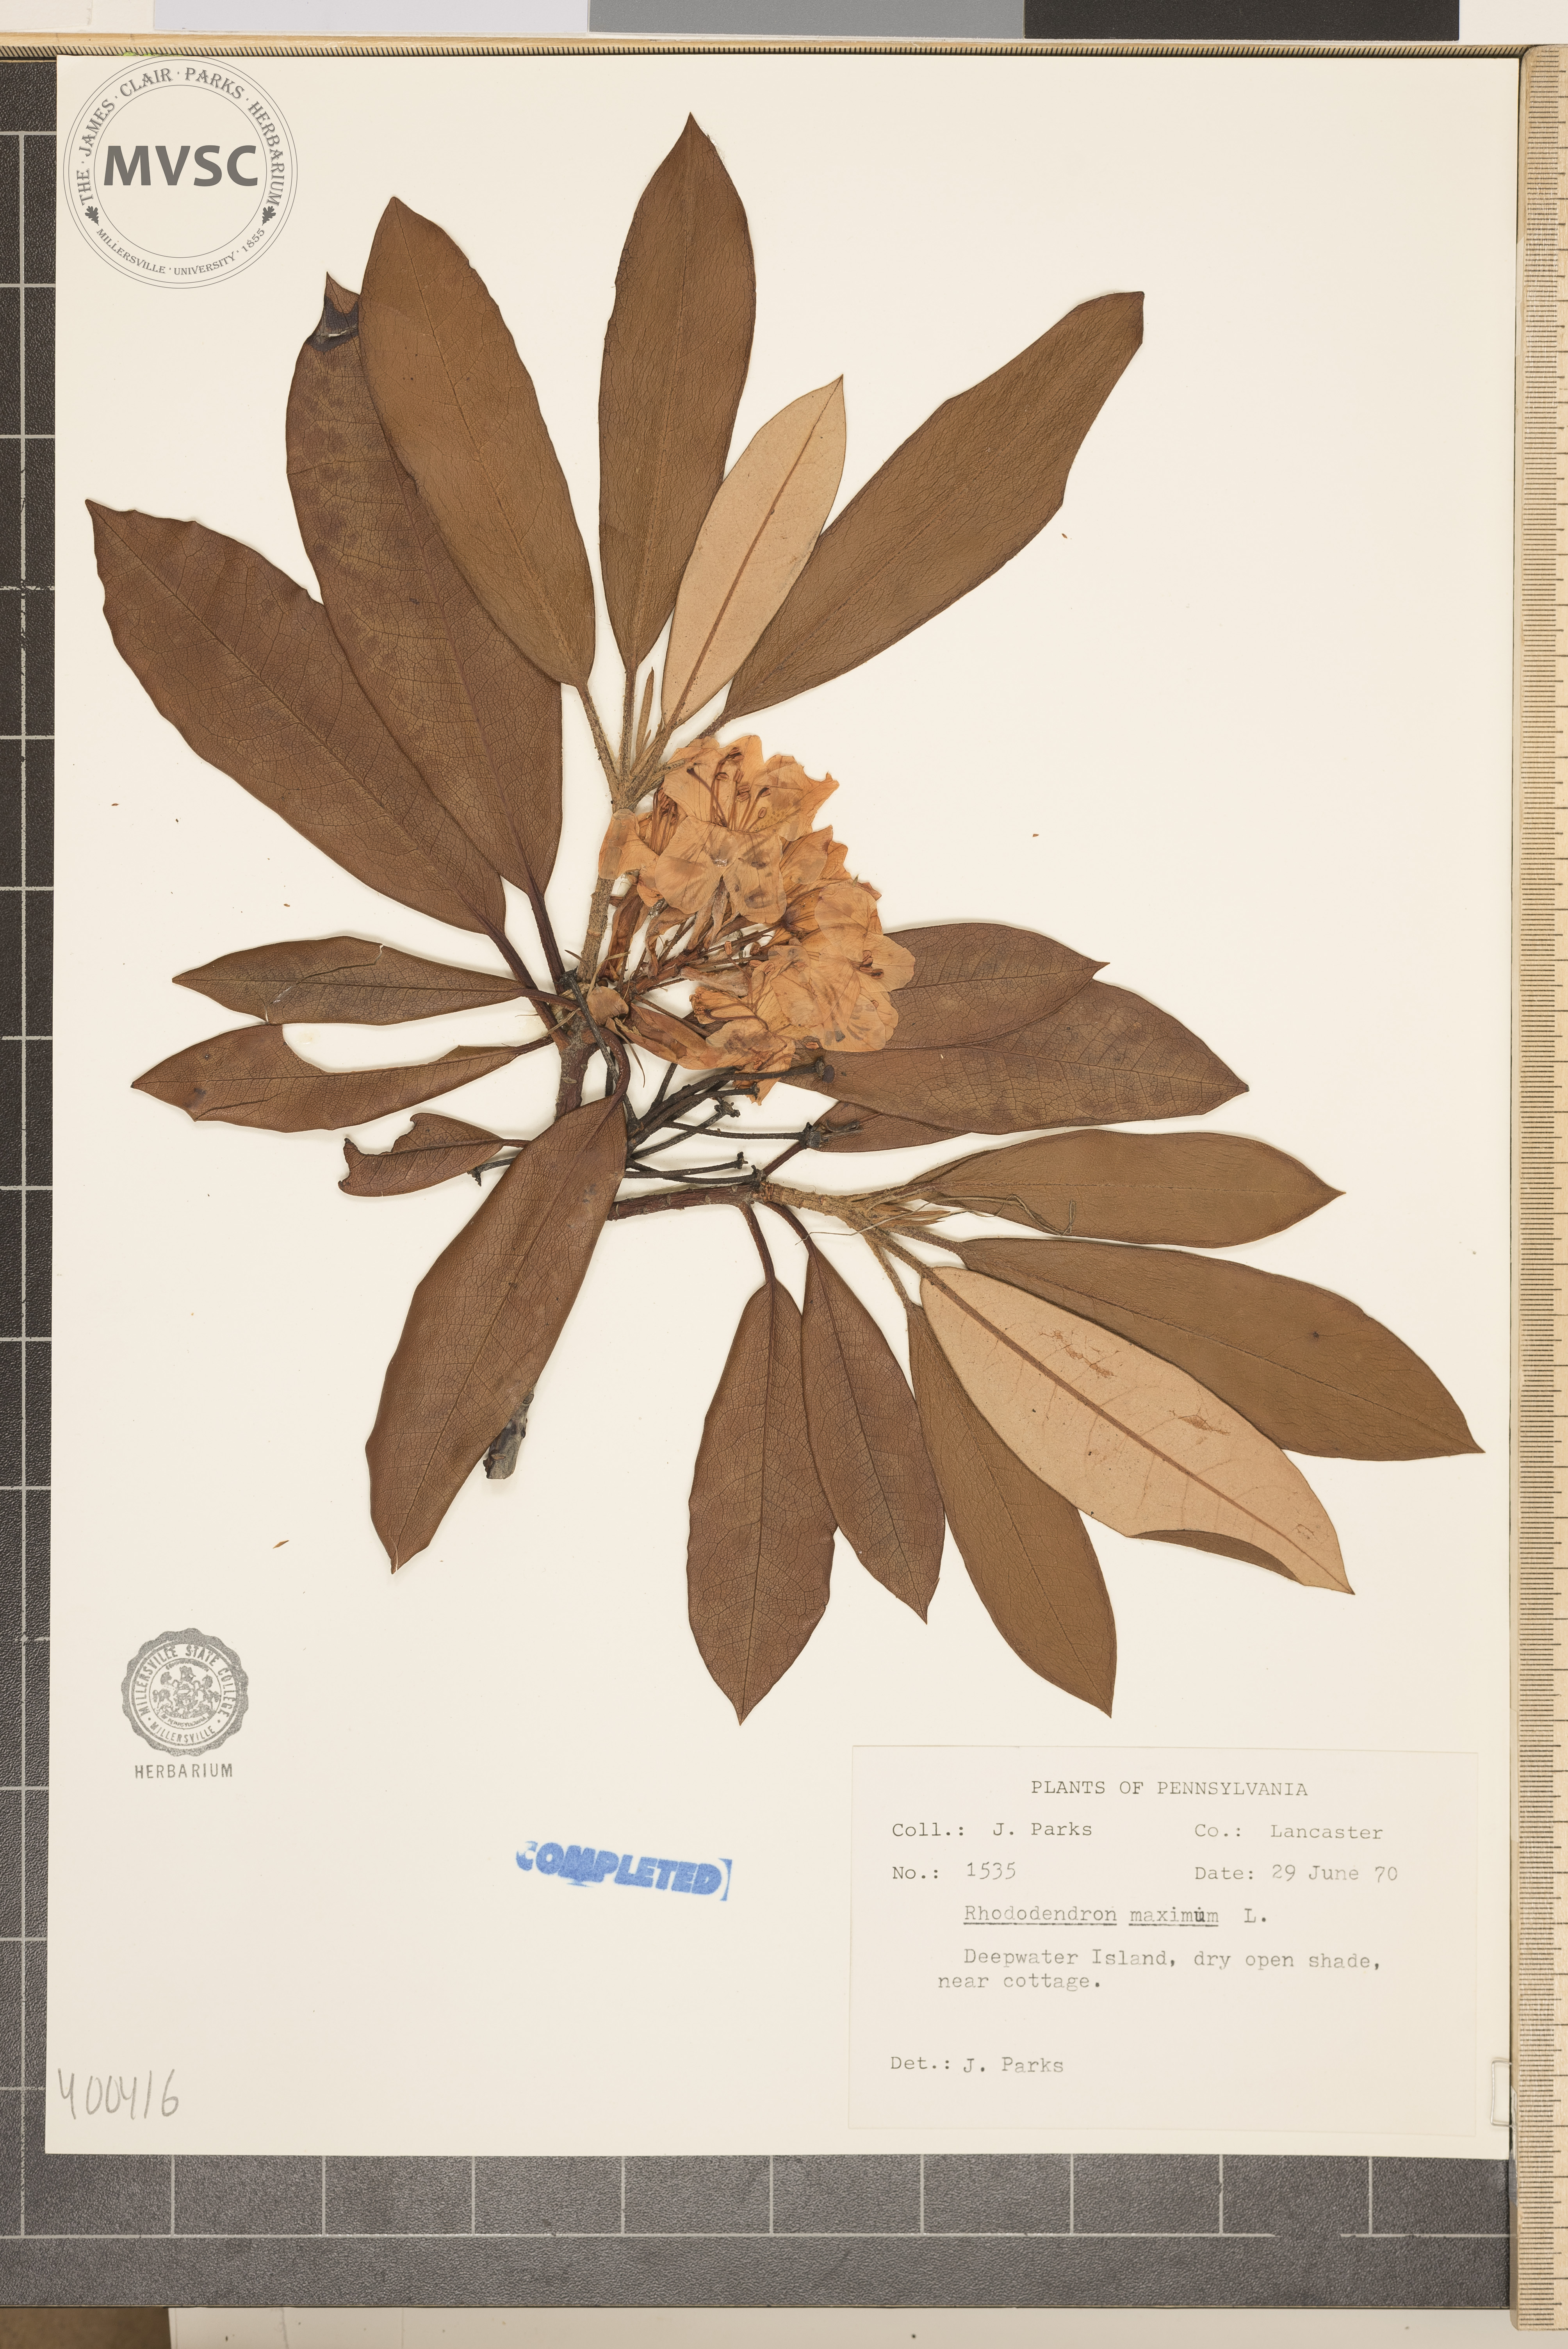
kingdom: Plantae
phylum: Tracheophyta
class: Magnoliopsida
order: Ericales
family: Ericaceae
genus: Rhododendron
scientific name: Rhododendron maximum
